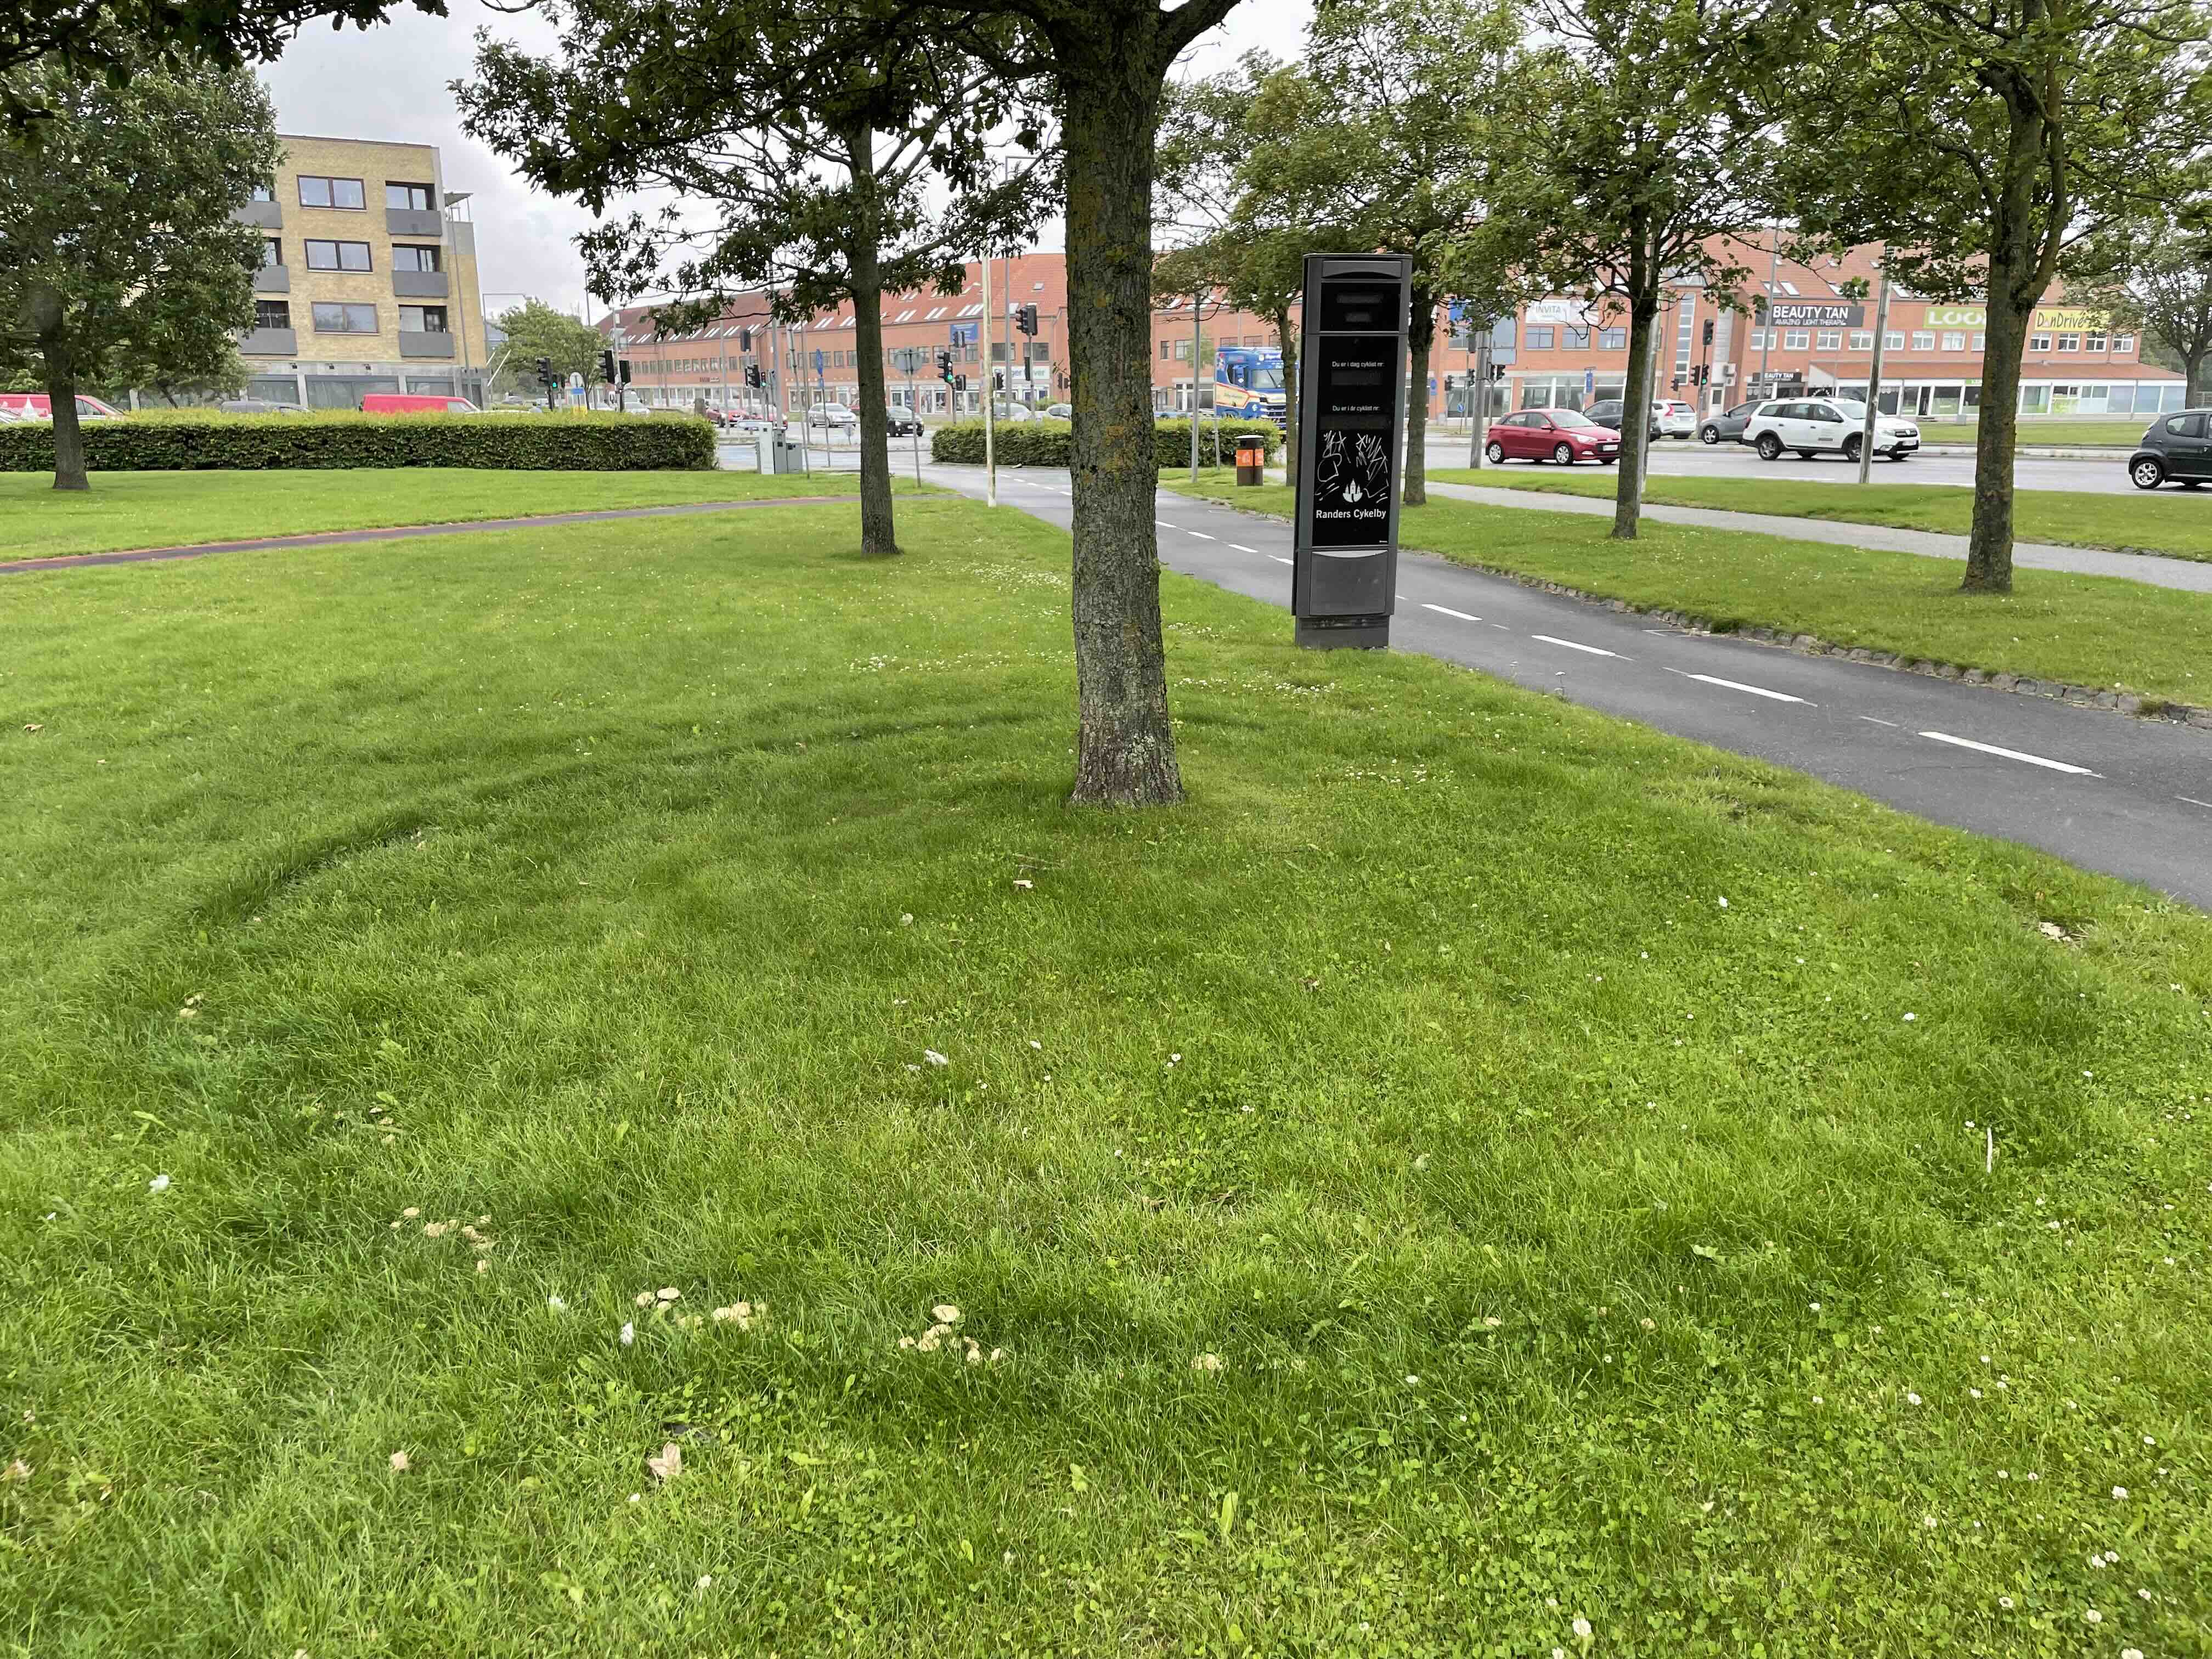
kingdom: Fungi
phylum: Basidiomycota
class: Agaricomycetes
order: Agaricales
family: Marasmiaceae
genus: Marasmius
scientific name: Marasmius oreades
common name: elledans-bruskhat
